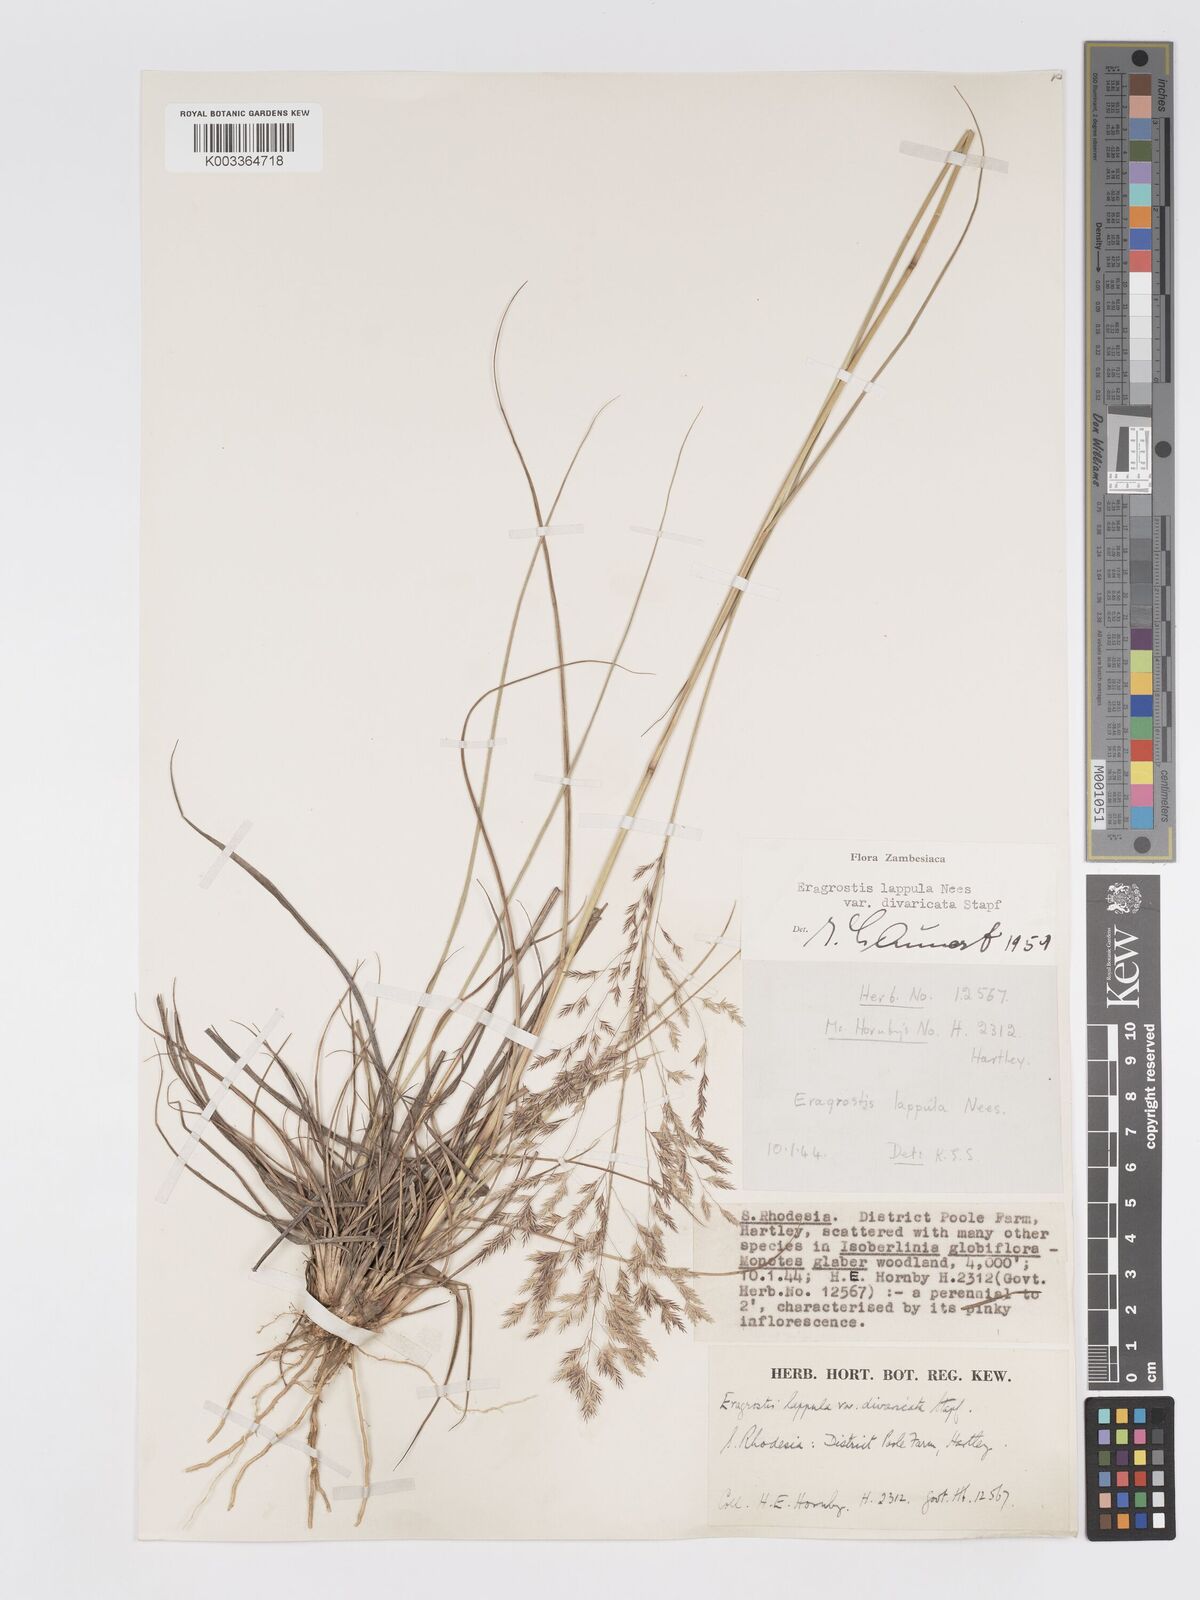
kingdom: Plantae
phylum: Tracheophyta
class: Liliopsida
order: Poales
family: Poaceae
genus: Eragrostis
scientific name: Eragrostis lappula
